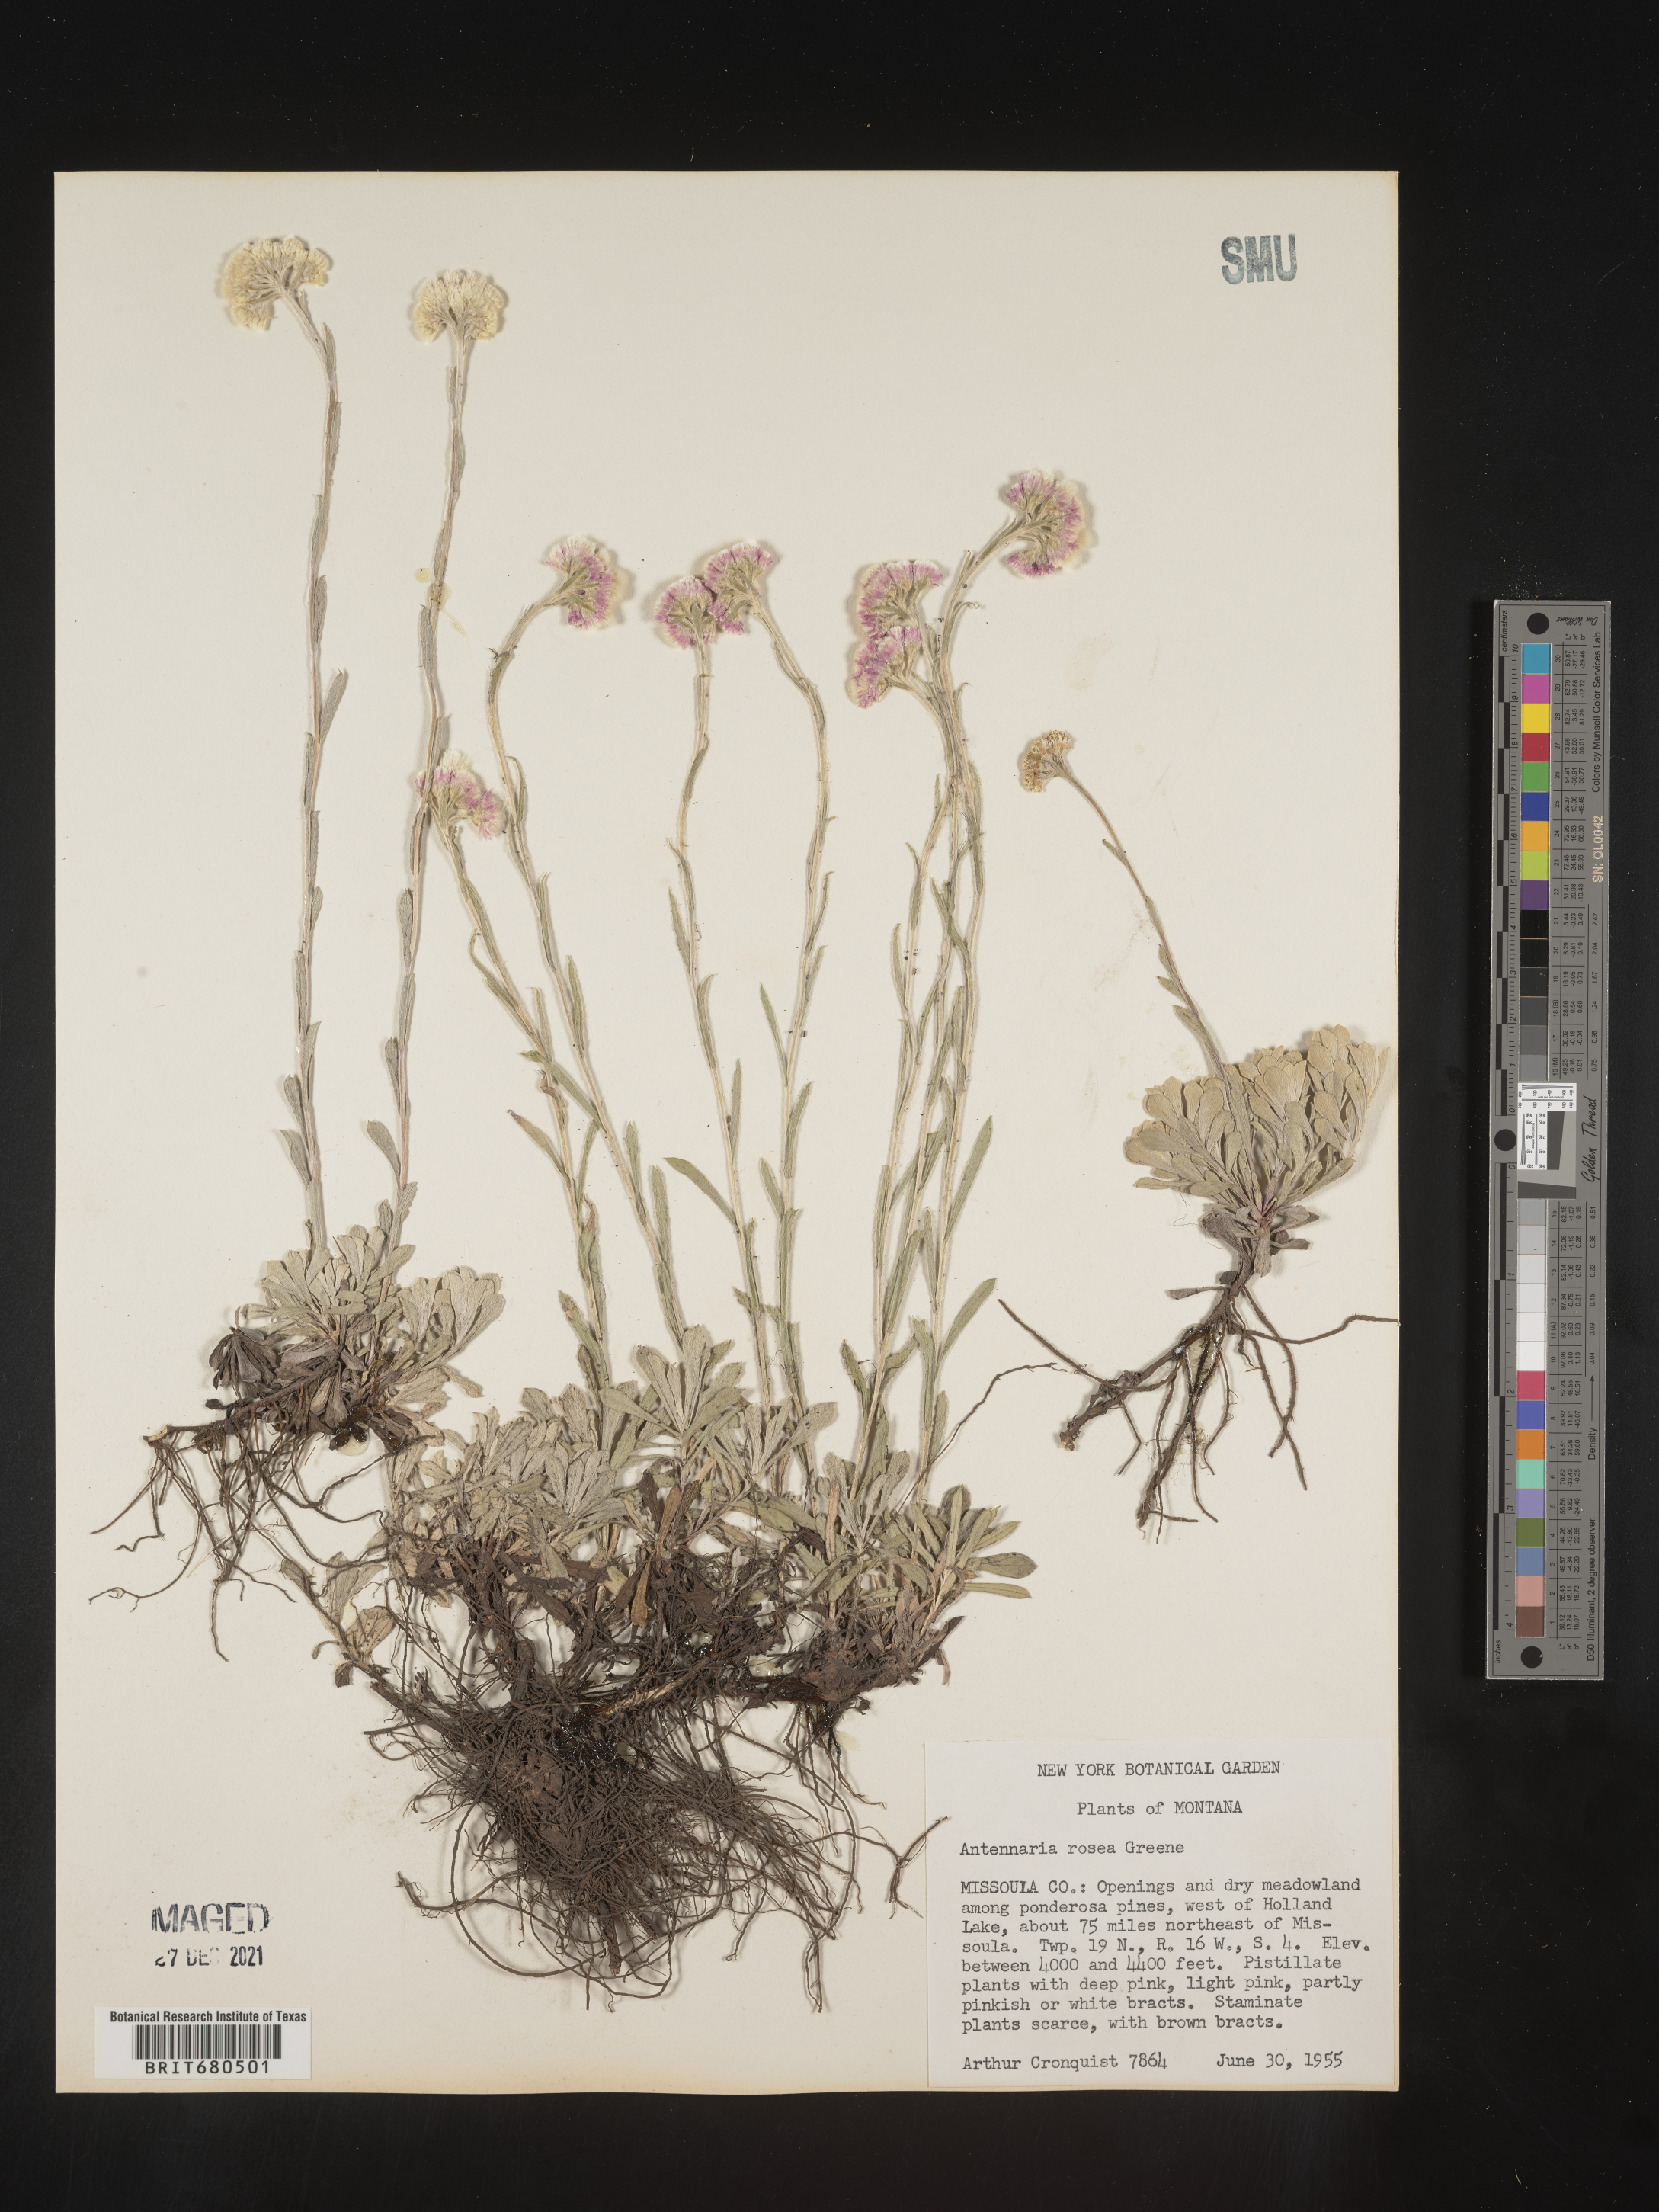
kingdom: Plantae
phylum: Tracheophyta
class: Magnoliopsida
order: Asterales
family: Asteraceae
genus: Antennaria
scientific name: Antennaria rosea
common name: Rosy pussytoes
